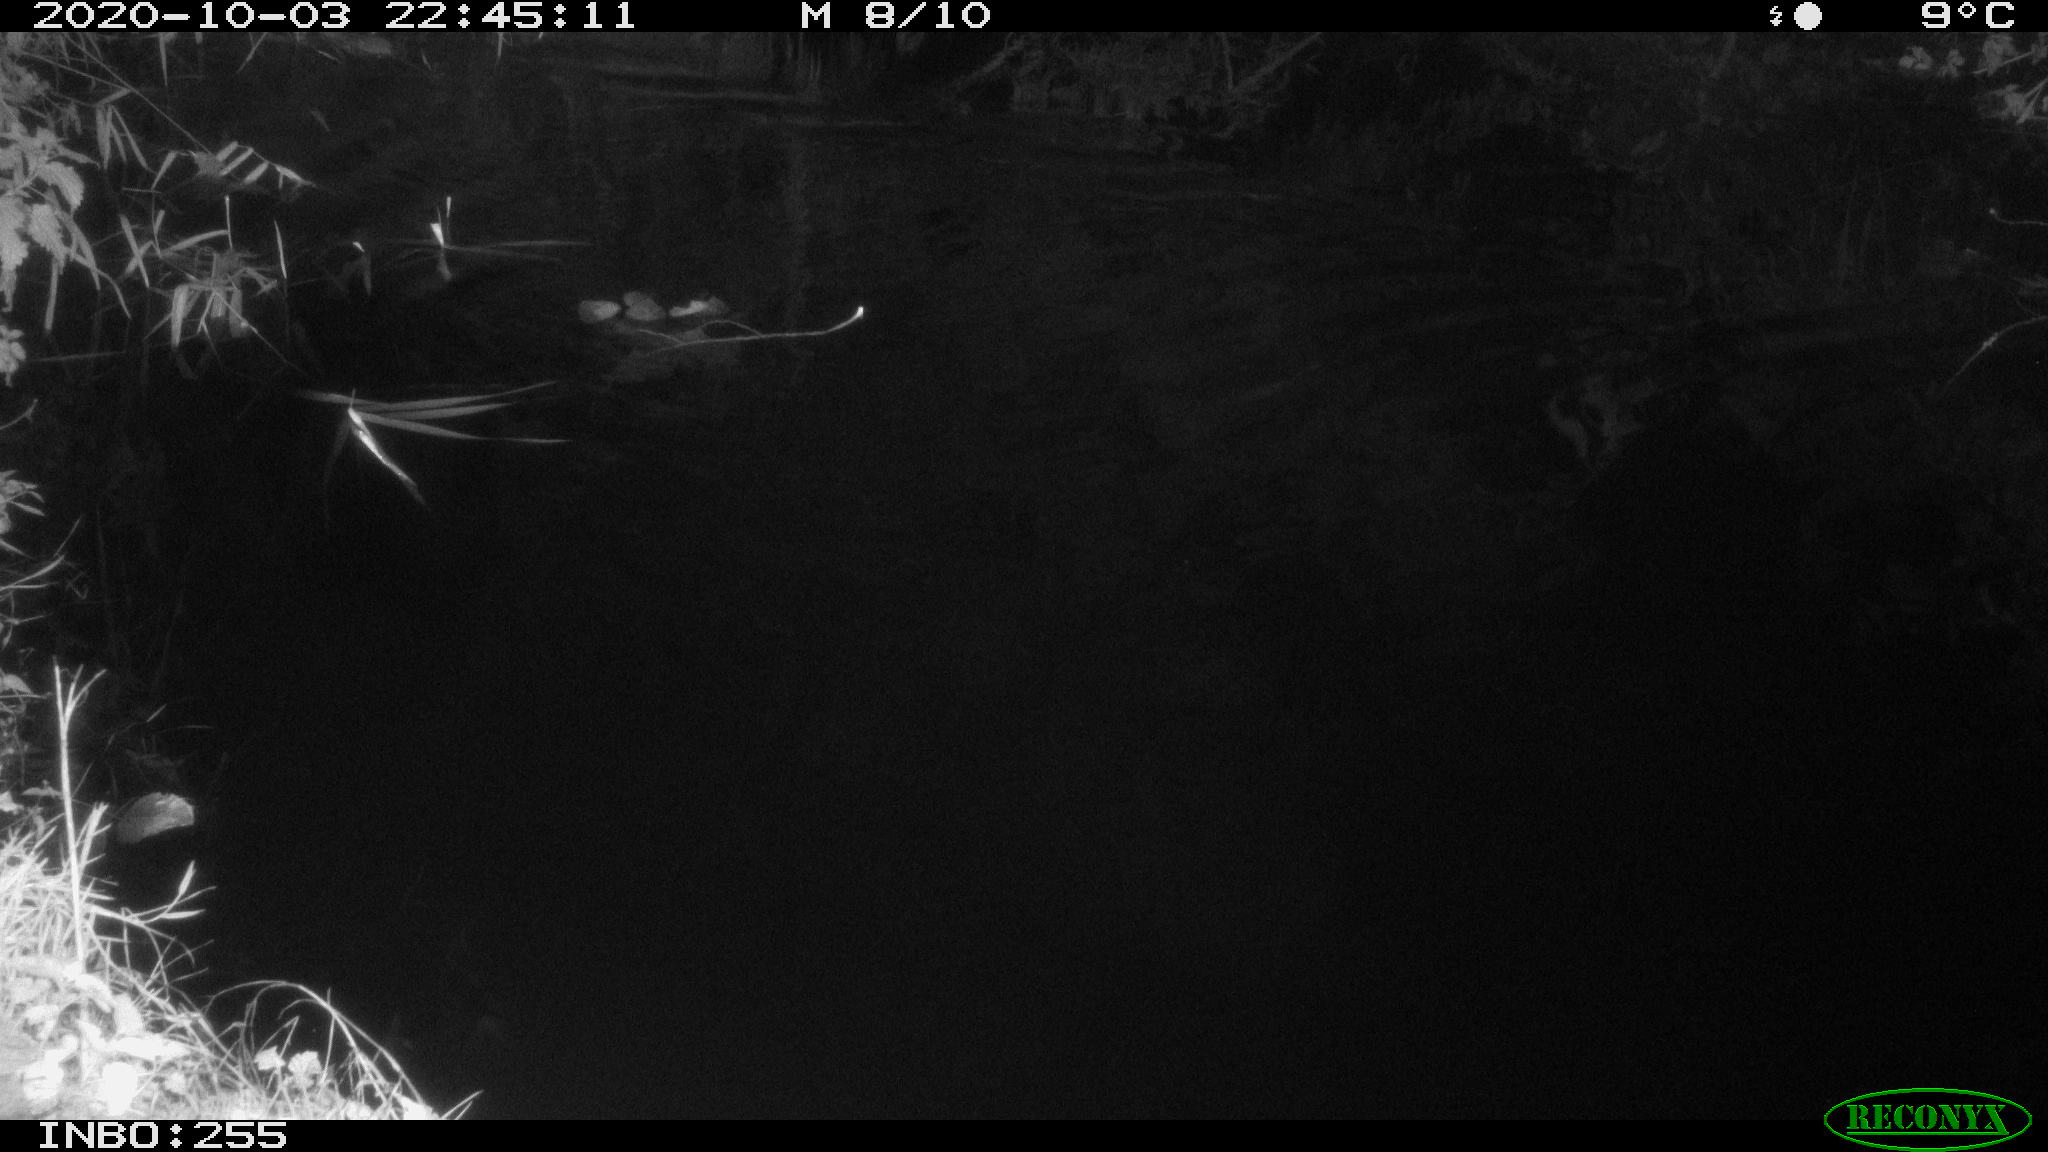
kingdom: Animalia
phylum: Chordata
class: Mammalia
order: Rodentia
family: Muridae
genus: Rattus
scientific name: Rattus norvegicus
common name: Brown rat
